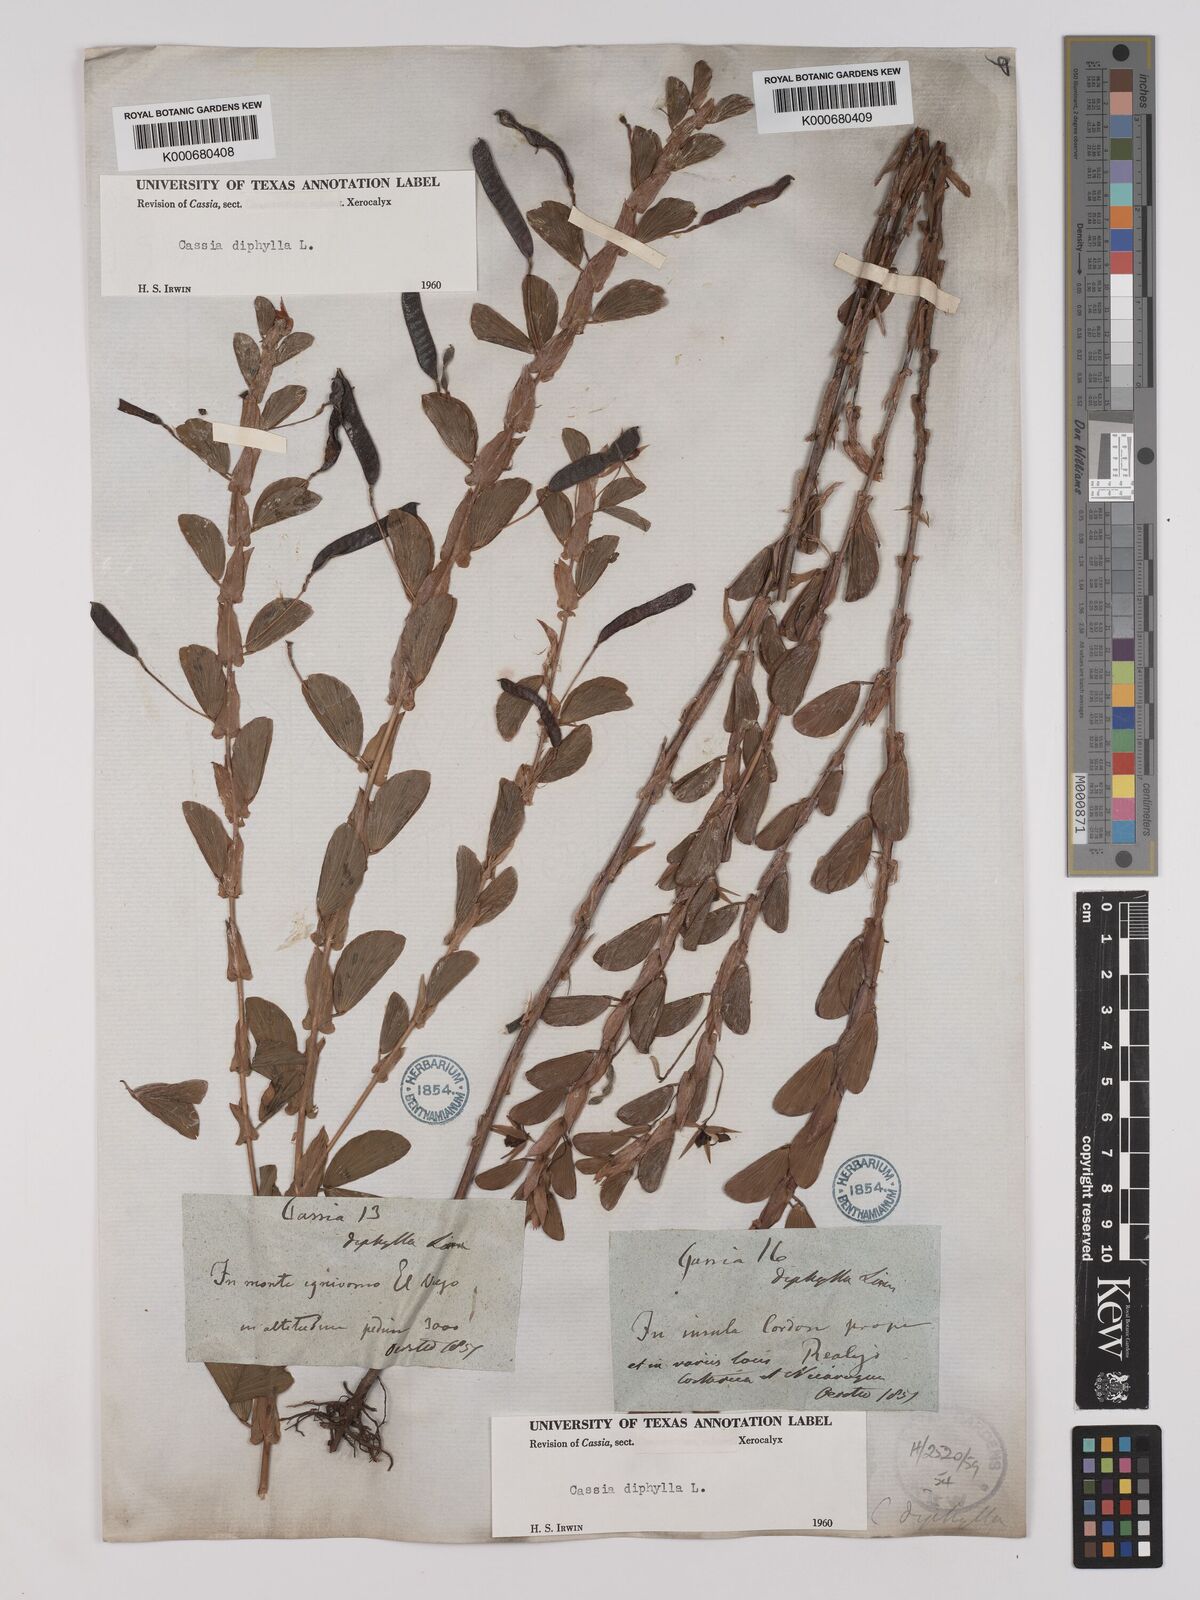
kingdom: Plantae
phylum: Tracheophyta
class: Magnoliopsida
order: Fabales
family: Fabaceae
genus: Chamaecrista
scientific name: Chamaecrista diphylla
